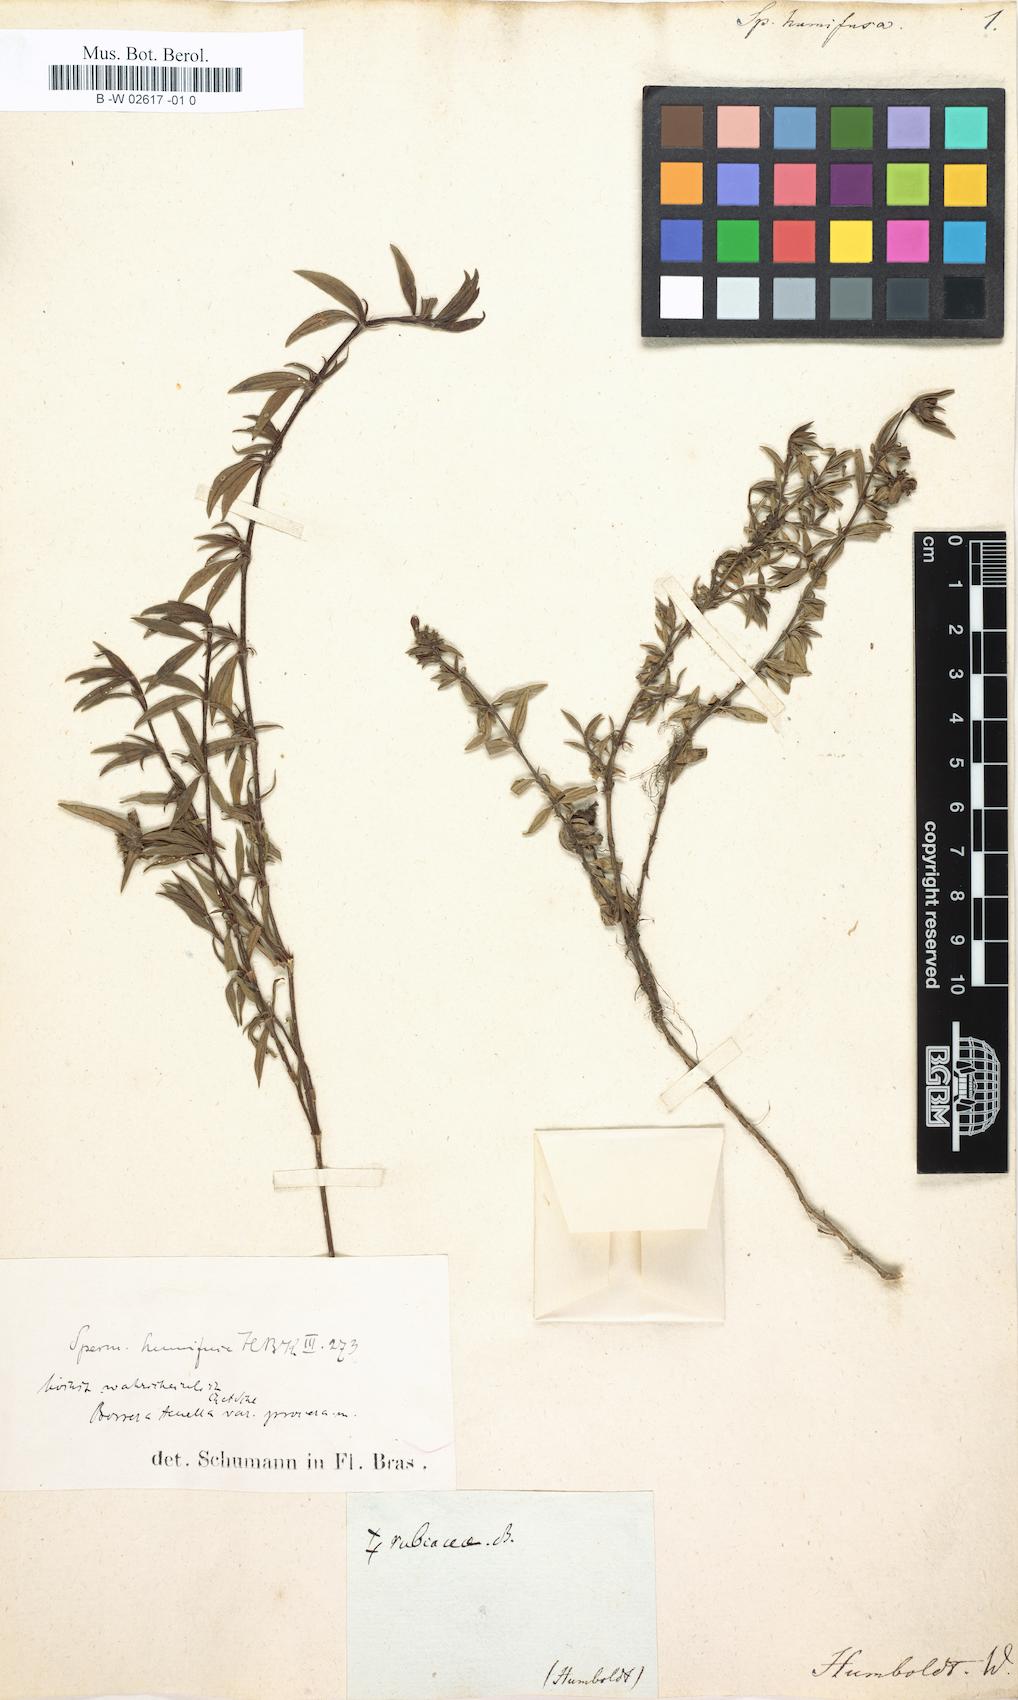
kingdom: Plantae
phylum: Tracheophyta
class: Magnoliopsida
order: Gentianales
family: Rubiaceae
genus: Spermacoce
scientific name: Spermacoce humifusa
